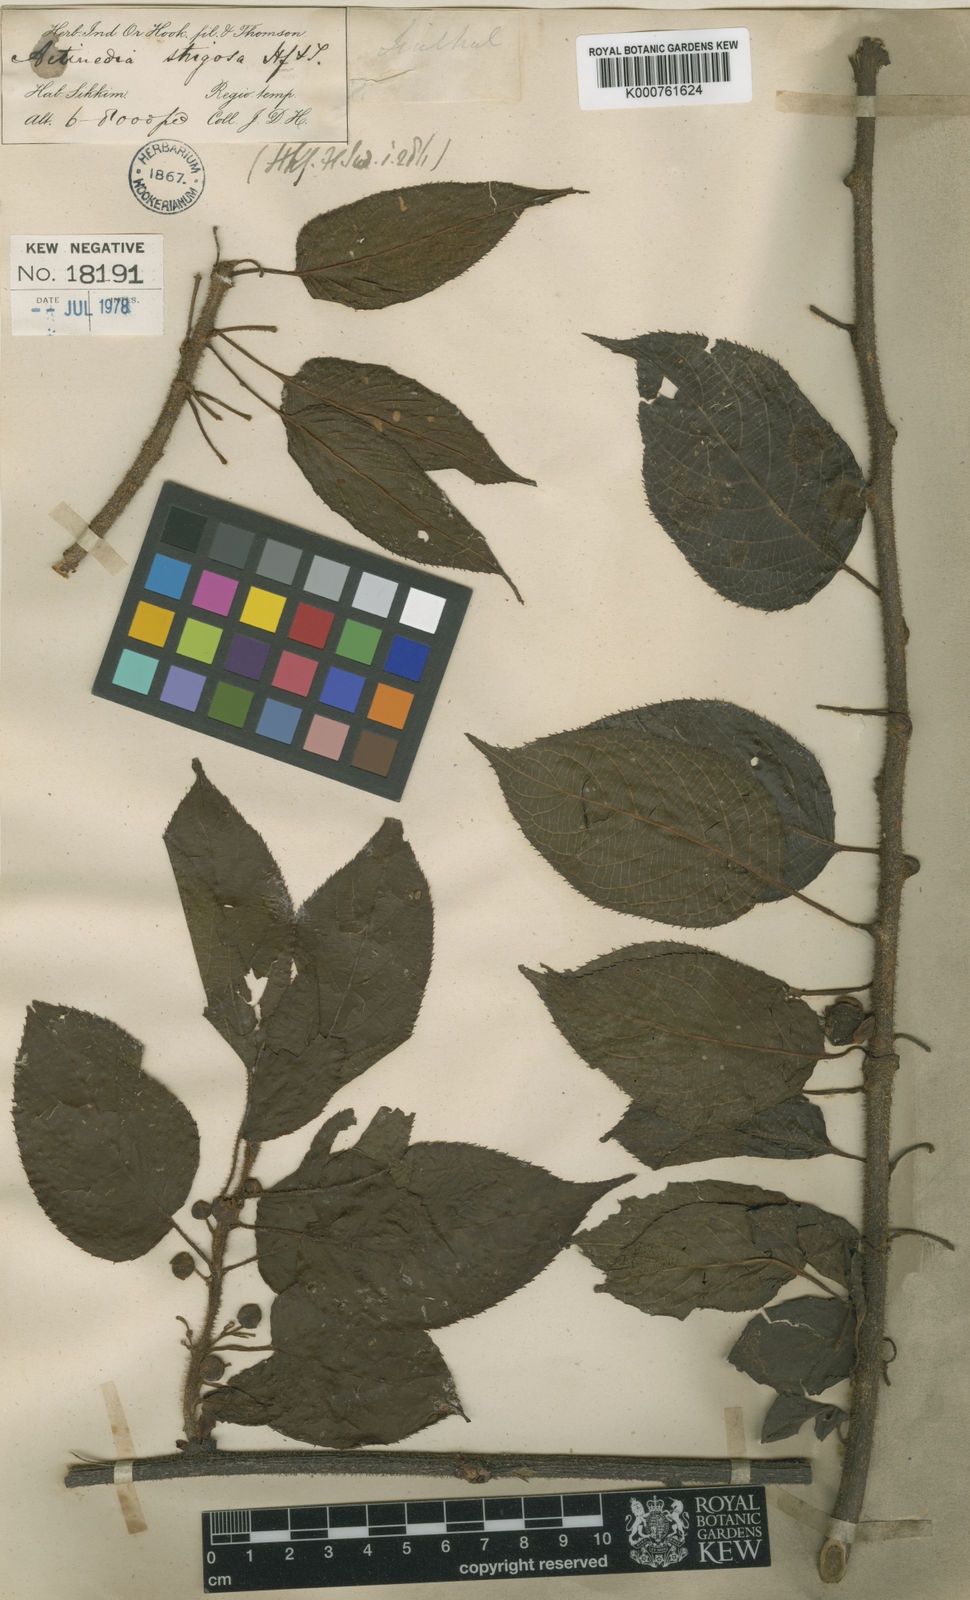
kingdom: Plantae
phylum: Tracheophyta
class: Magnoliopsida
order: Ericales
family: Actinidiaceae
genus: Actinidia
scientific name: Actinidia strigosa
